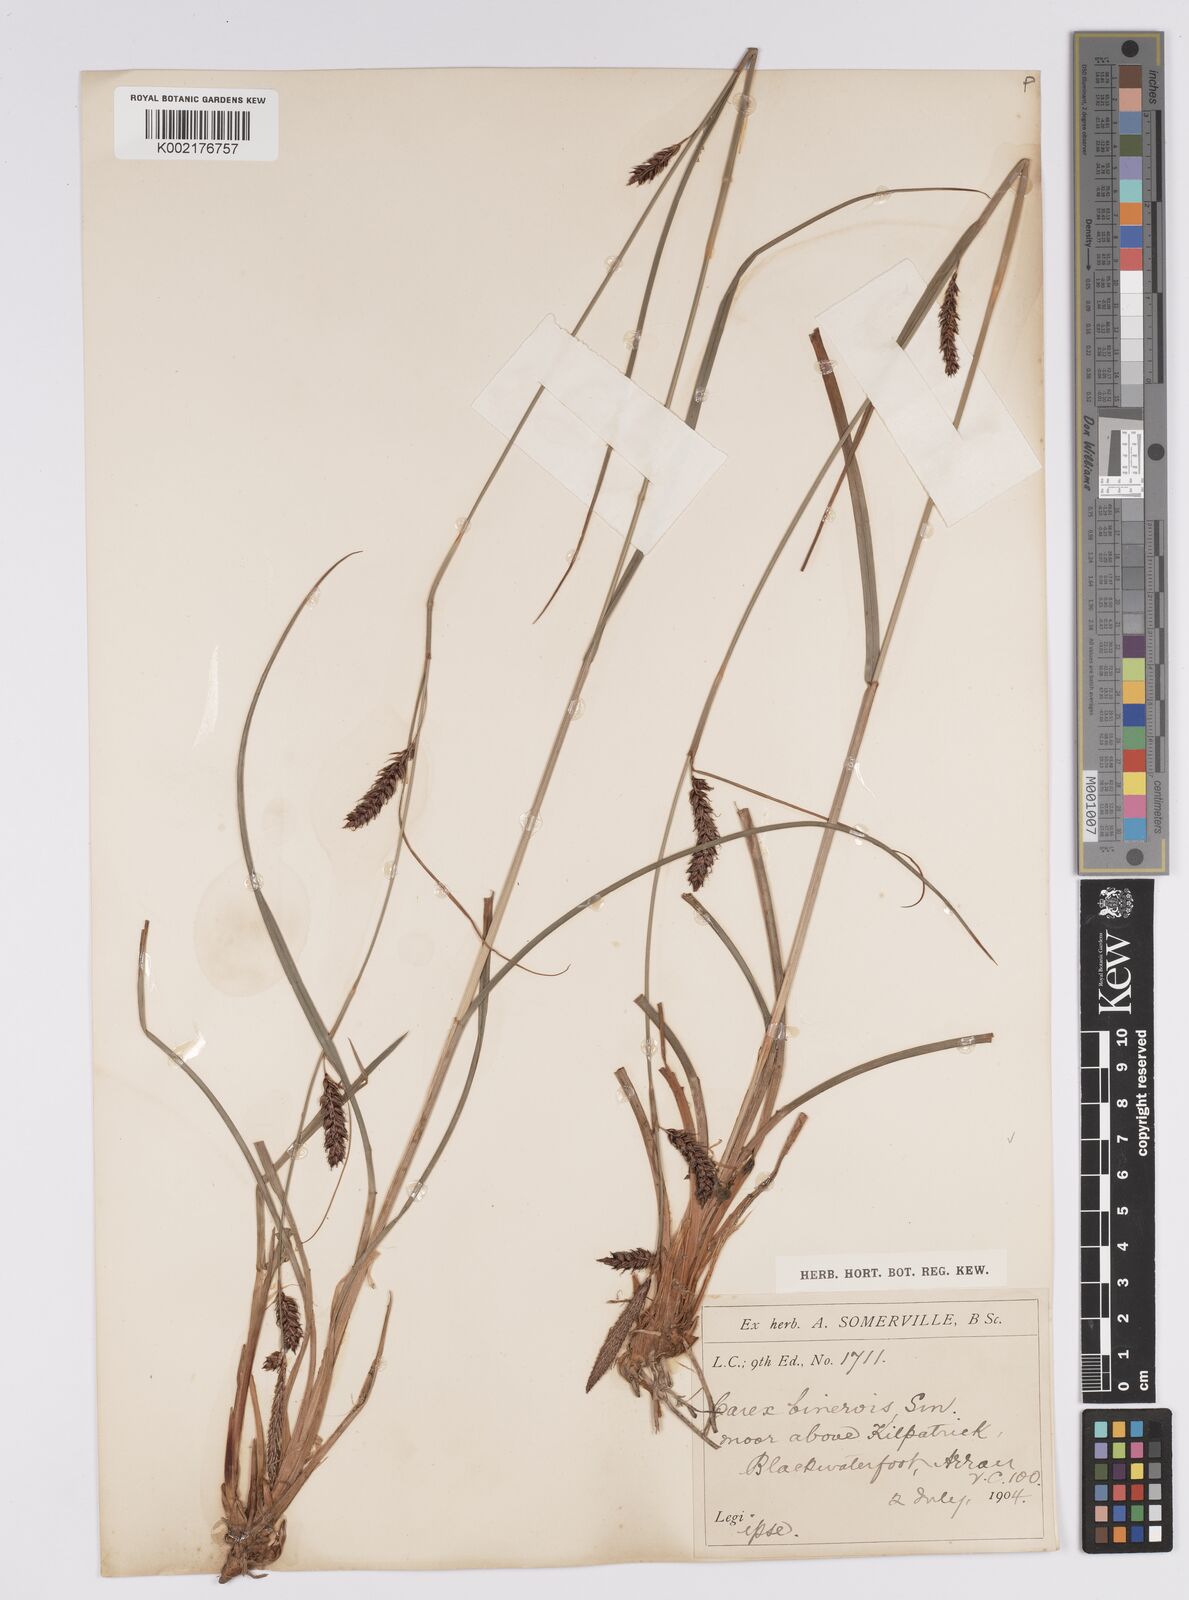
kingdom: Plantae
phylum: Tracheophyta
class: Liliopsida
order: Poales
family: Cyperaceae
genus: Carex
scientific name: Carex binervis
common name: Green-ribbed sedge
